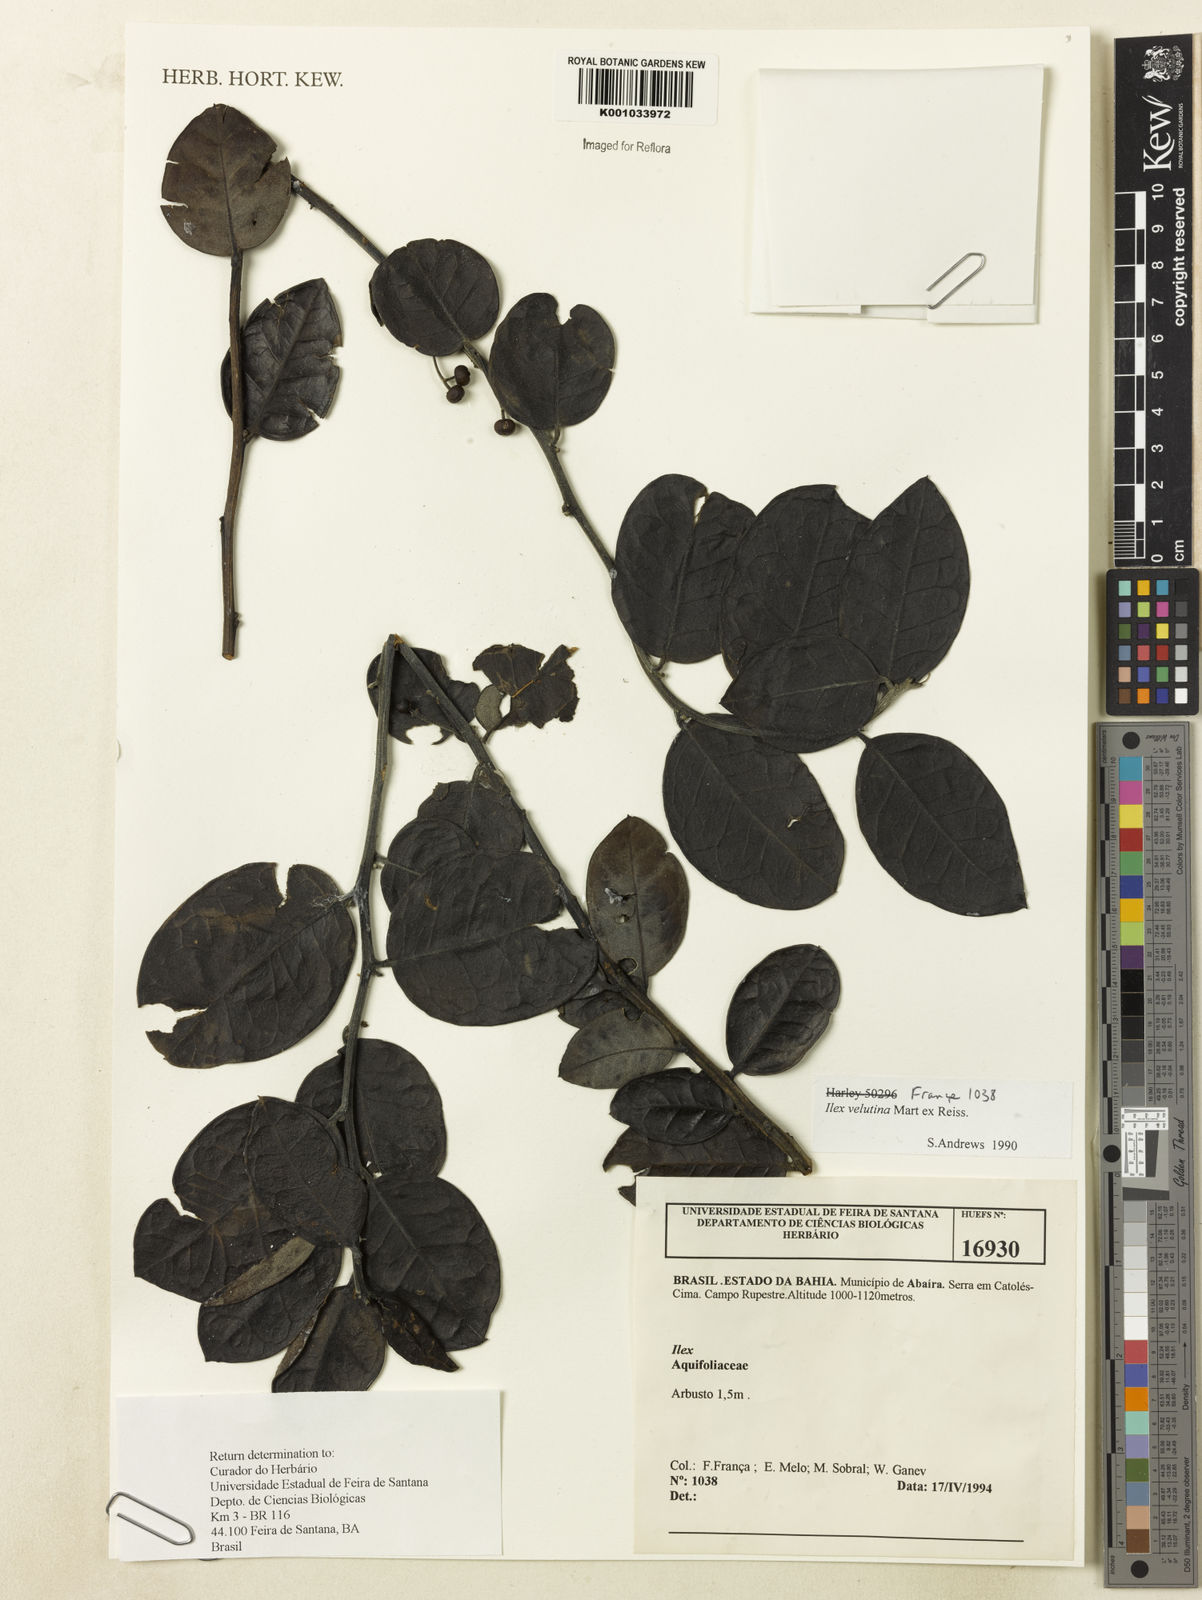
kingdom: Plantae
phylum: Tracheophyta
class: Magnoliopsida
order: Aquifoliales
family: Aquifoliaceae
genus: Ilex
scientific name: Ilex velutina
